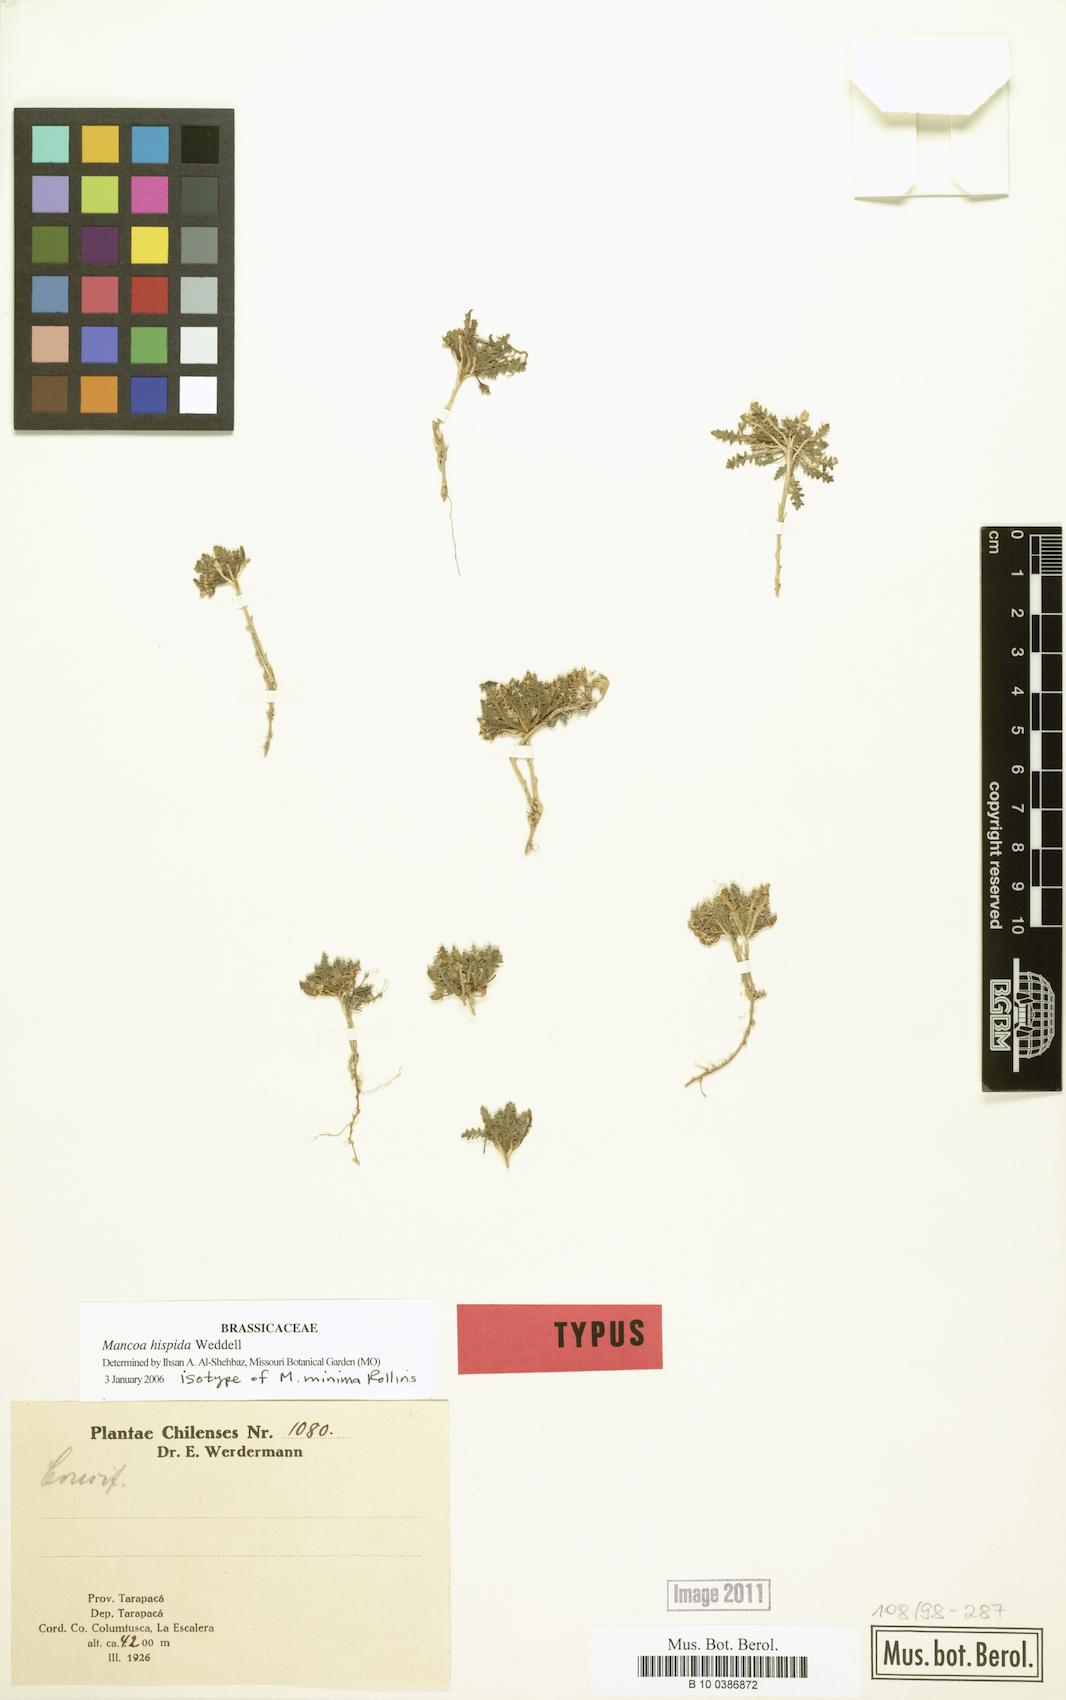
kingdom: Plantae
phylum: Tracheophyta
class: Magnoliopsida
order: Brassicales
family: Brassicaceae
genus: Mancoa
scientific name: Mancoa hispida
